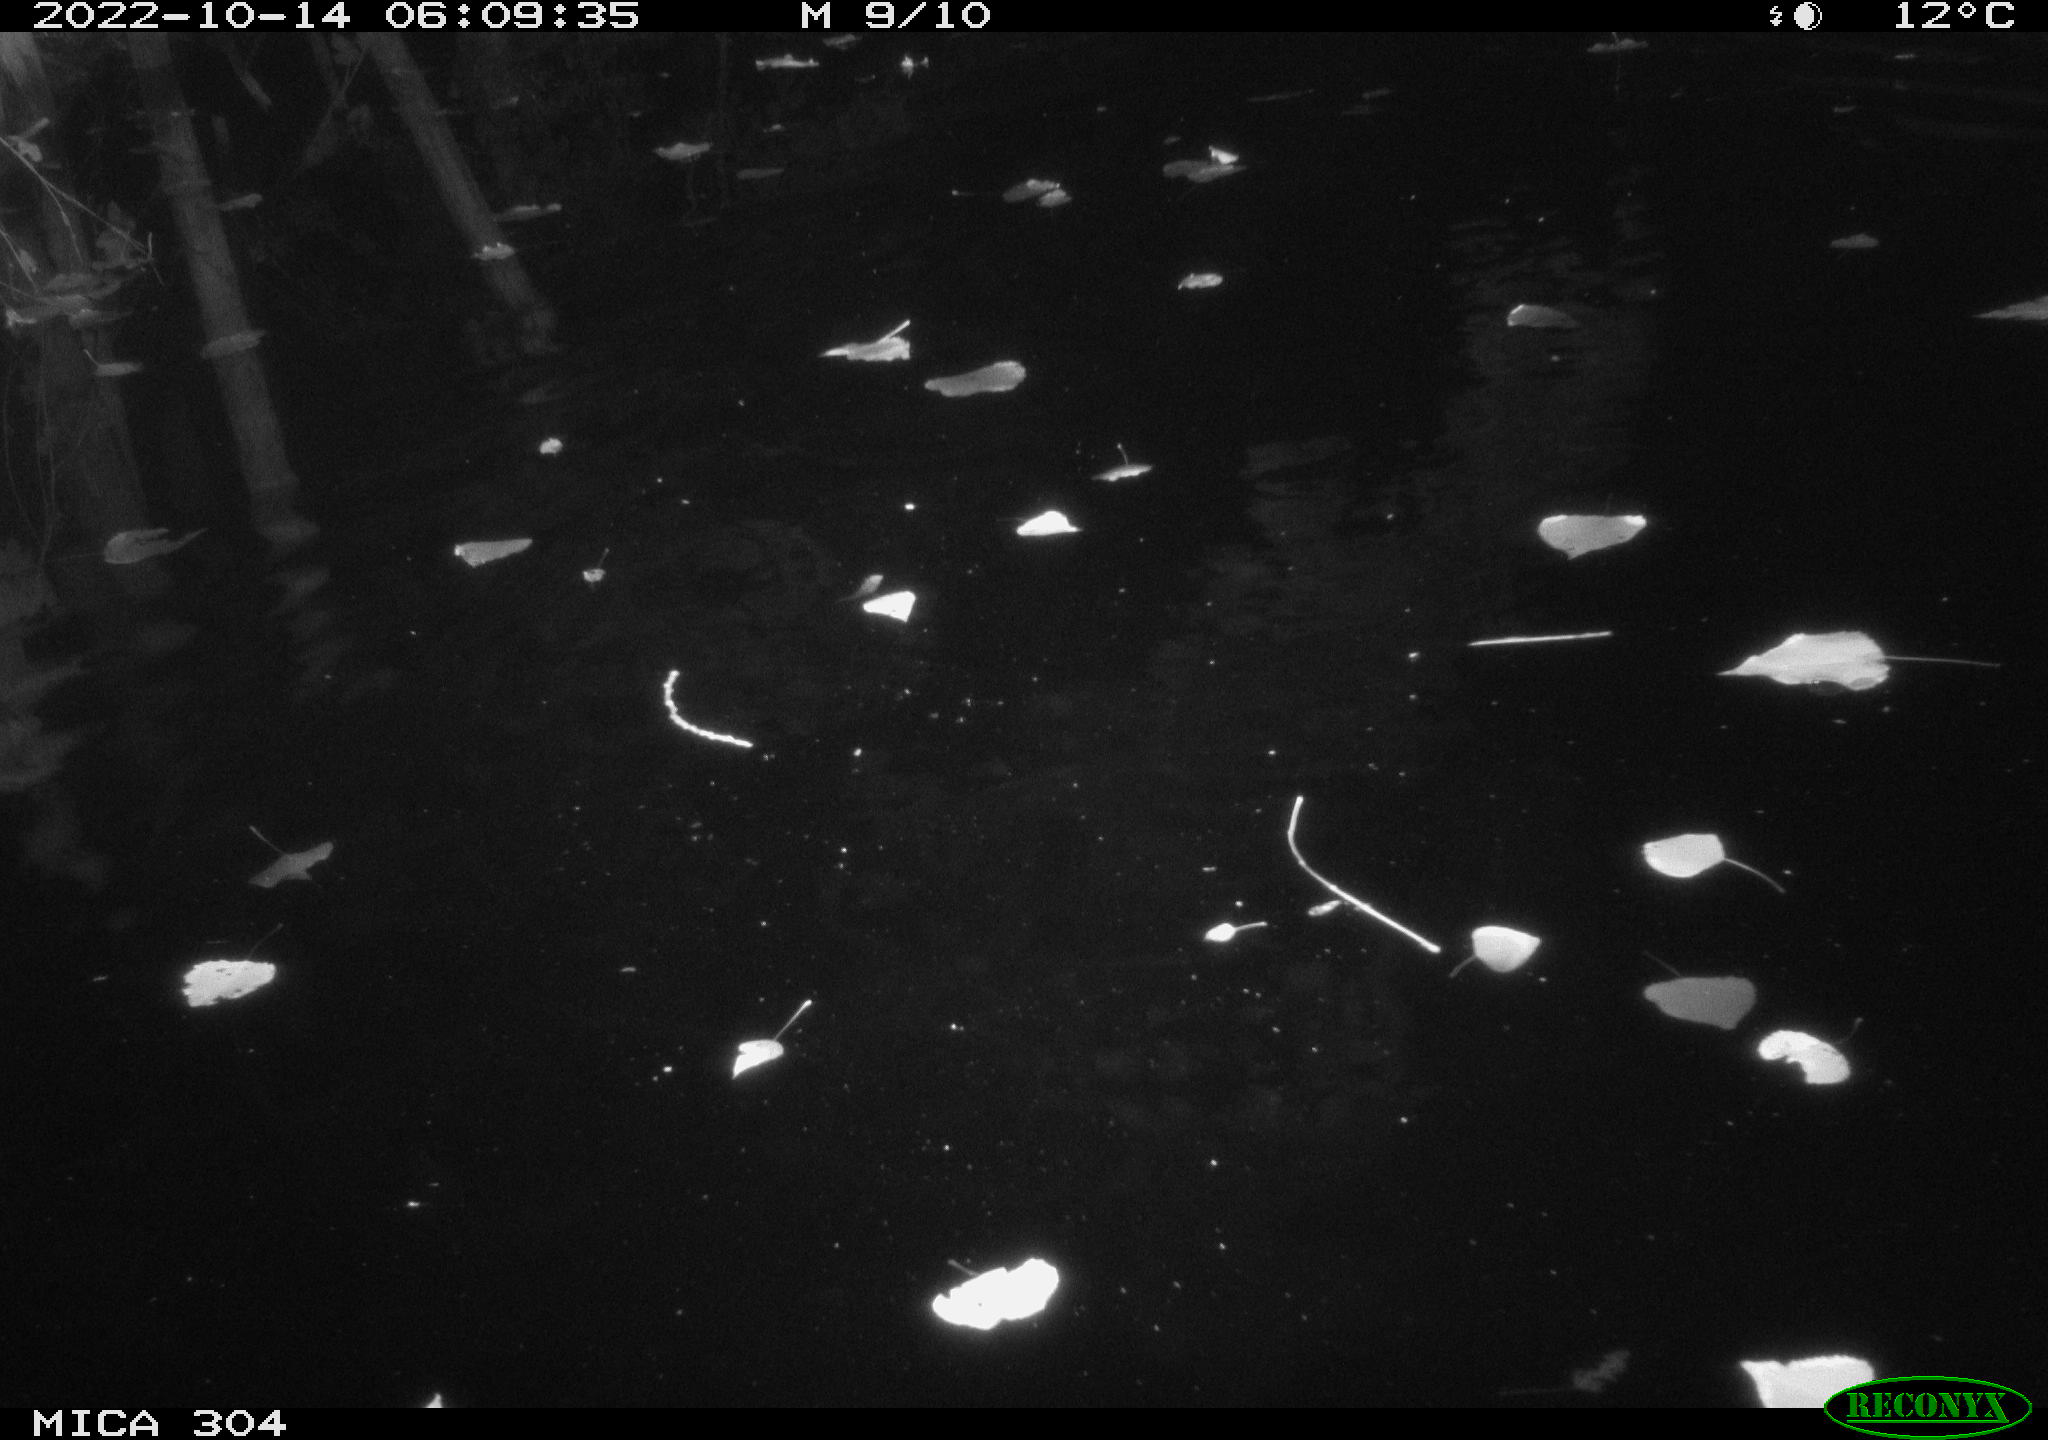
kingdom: Animalia
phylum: Chordata
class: Mammalia
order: Rodentia
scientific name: Rodentia
